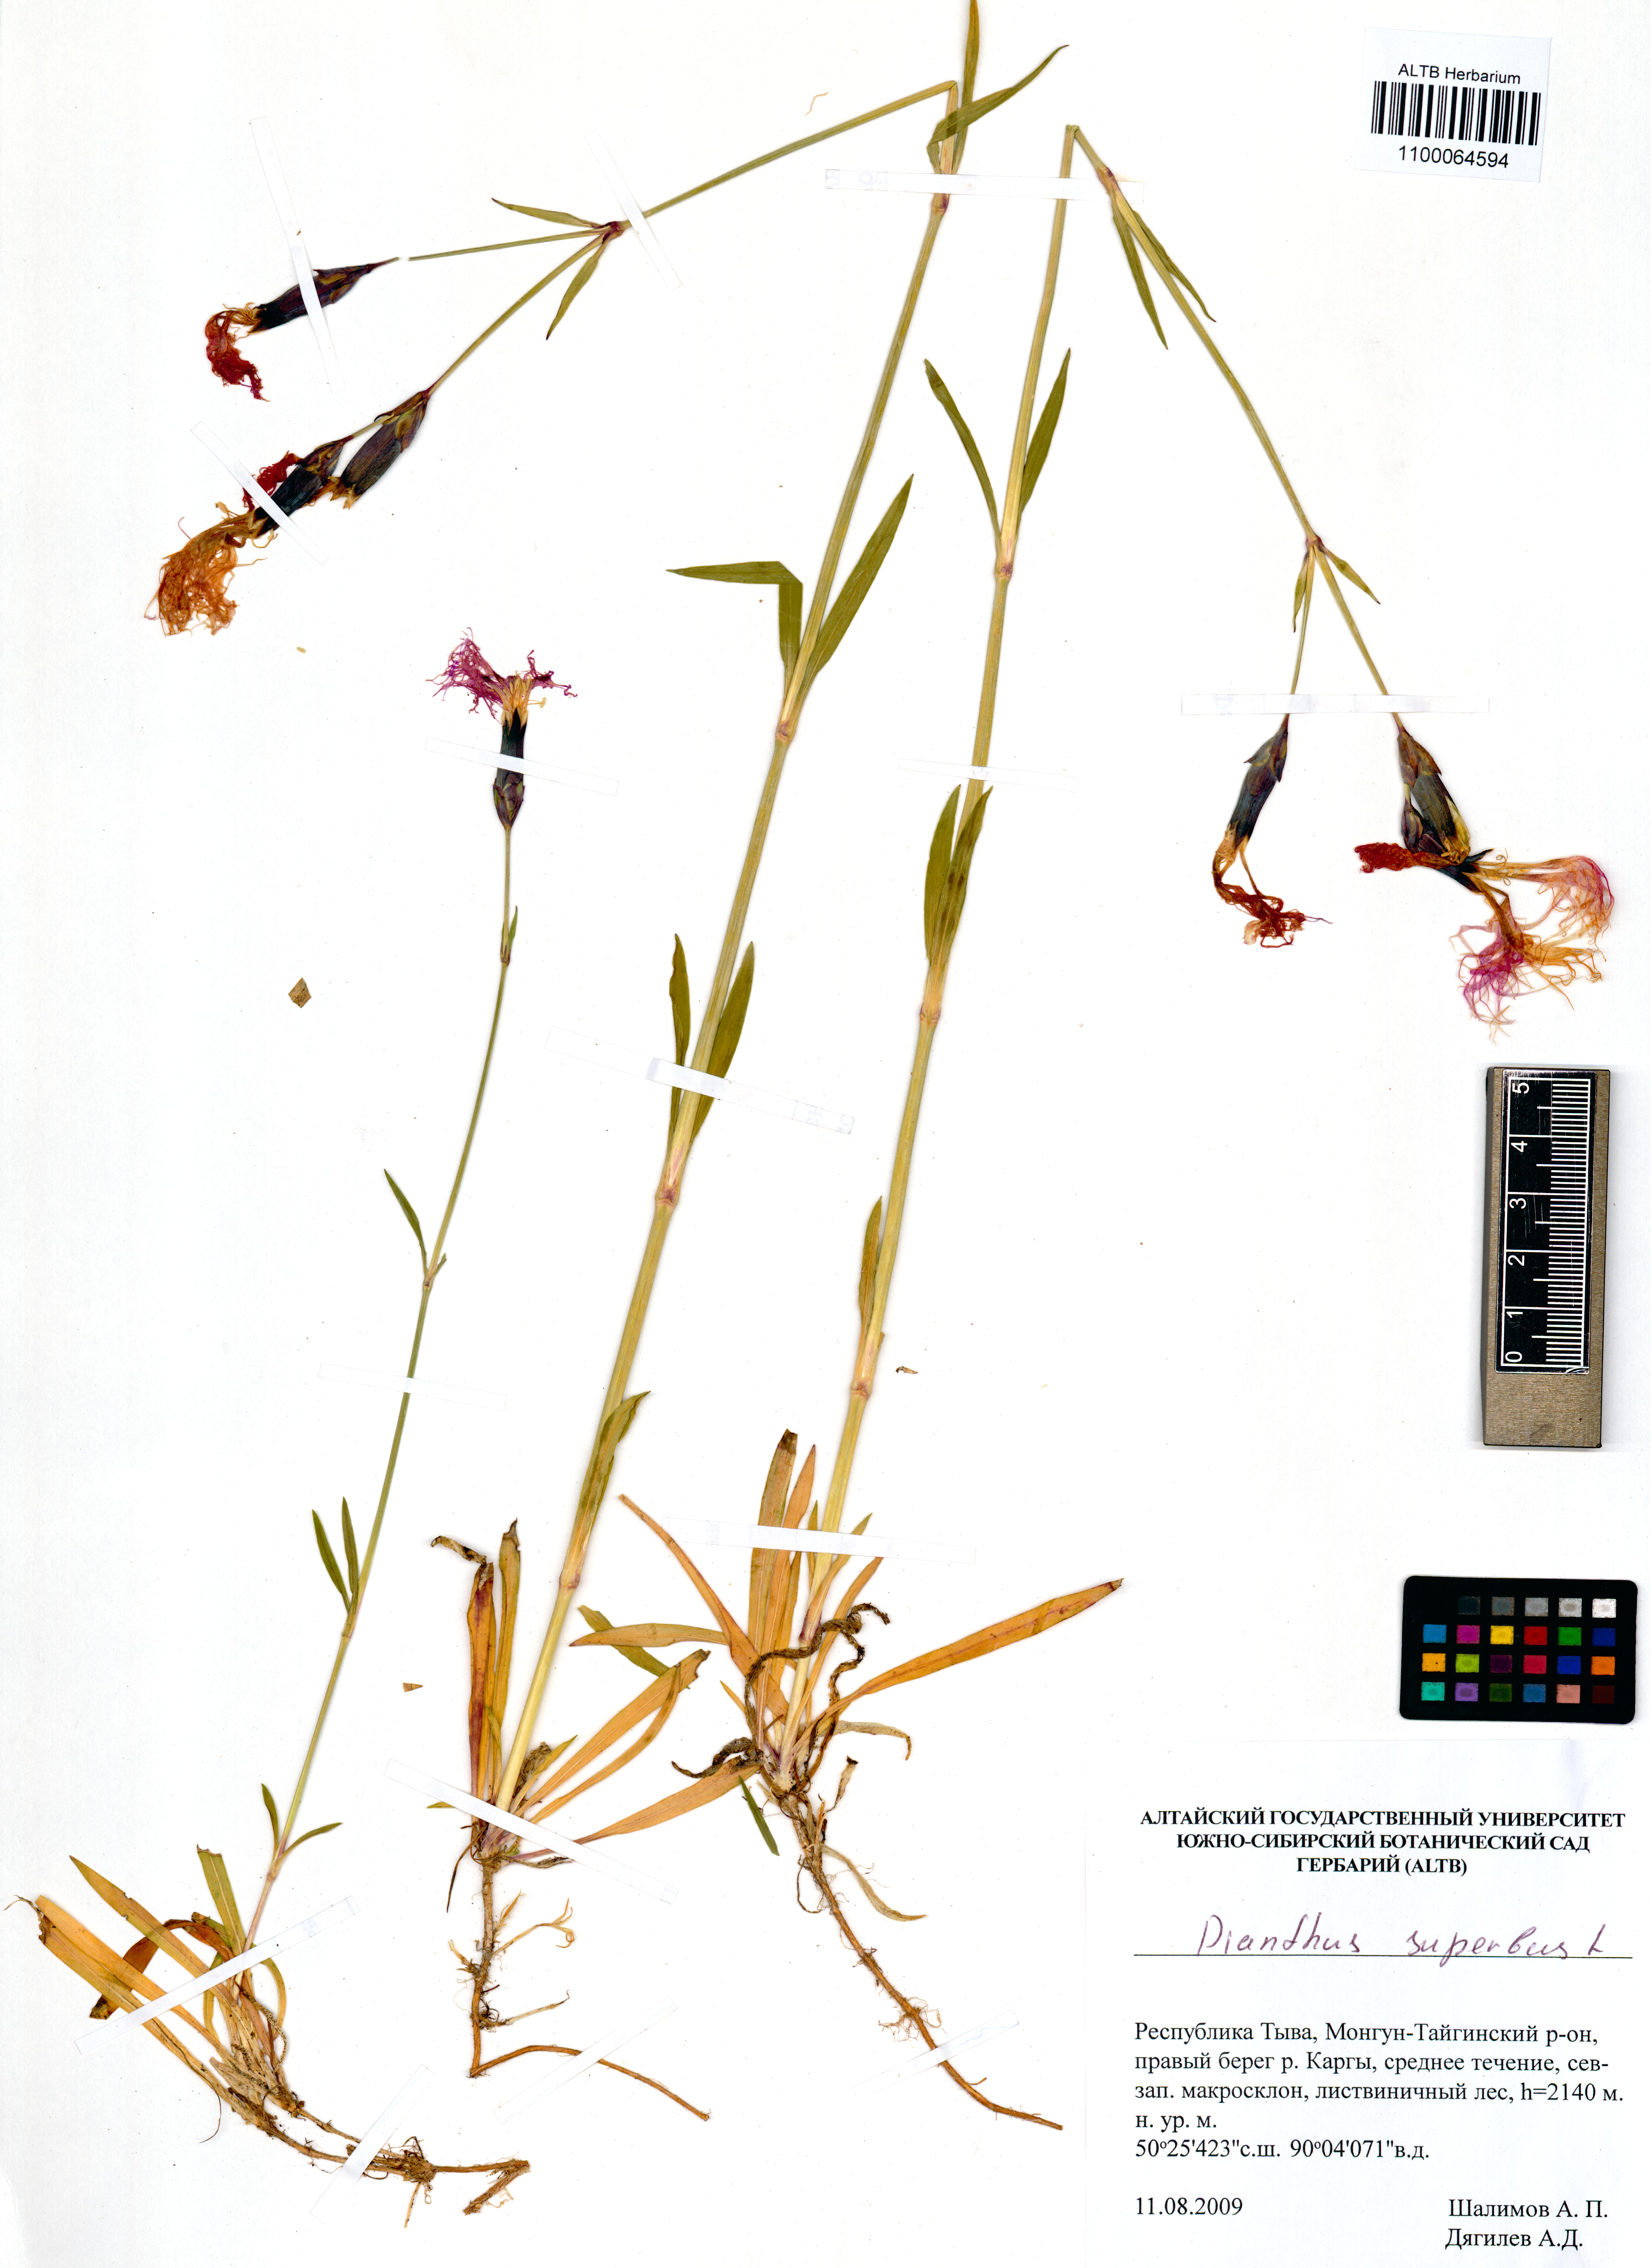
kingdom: Plantae
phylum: Tracheophyta
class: Magnoliopsida
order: Caryophyllales
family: Caryophyllaceae
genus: Dianthus
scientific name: Dianthus superbus
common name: Fringed pink
